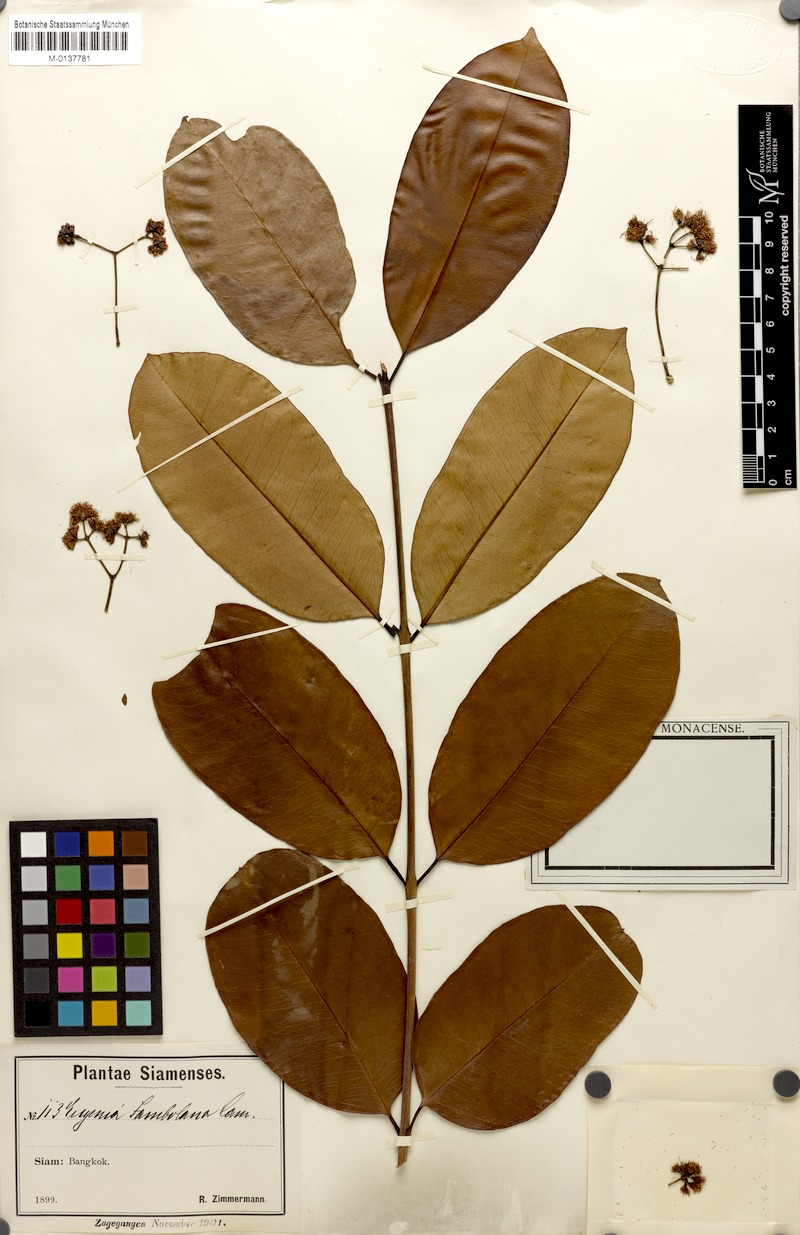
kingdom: Plantae
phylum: Tracheophyta
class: Magnoliopsida
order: Myrtales
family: Myrtaceae
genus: Syzygium
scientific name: Syzygium cumini
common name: Java plum
